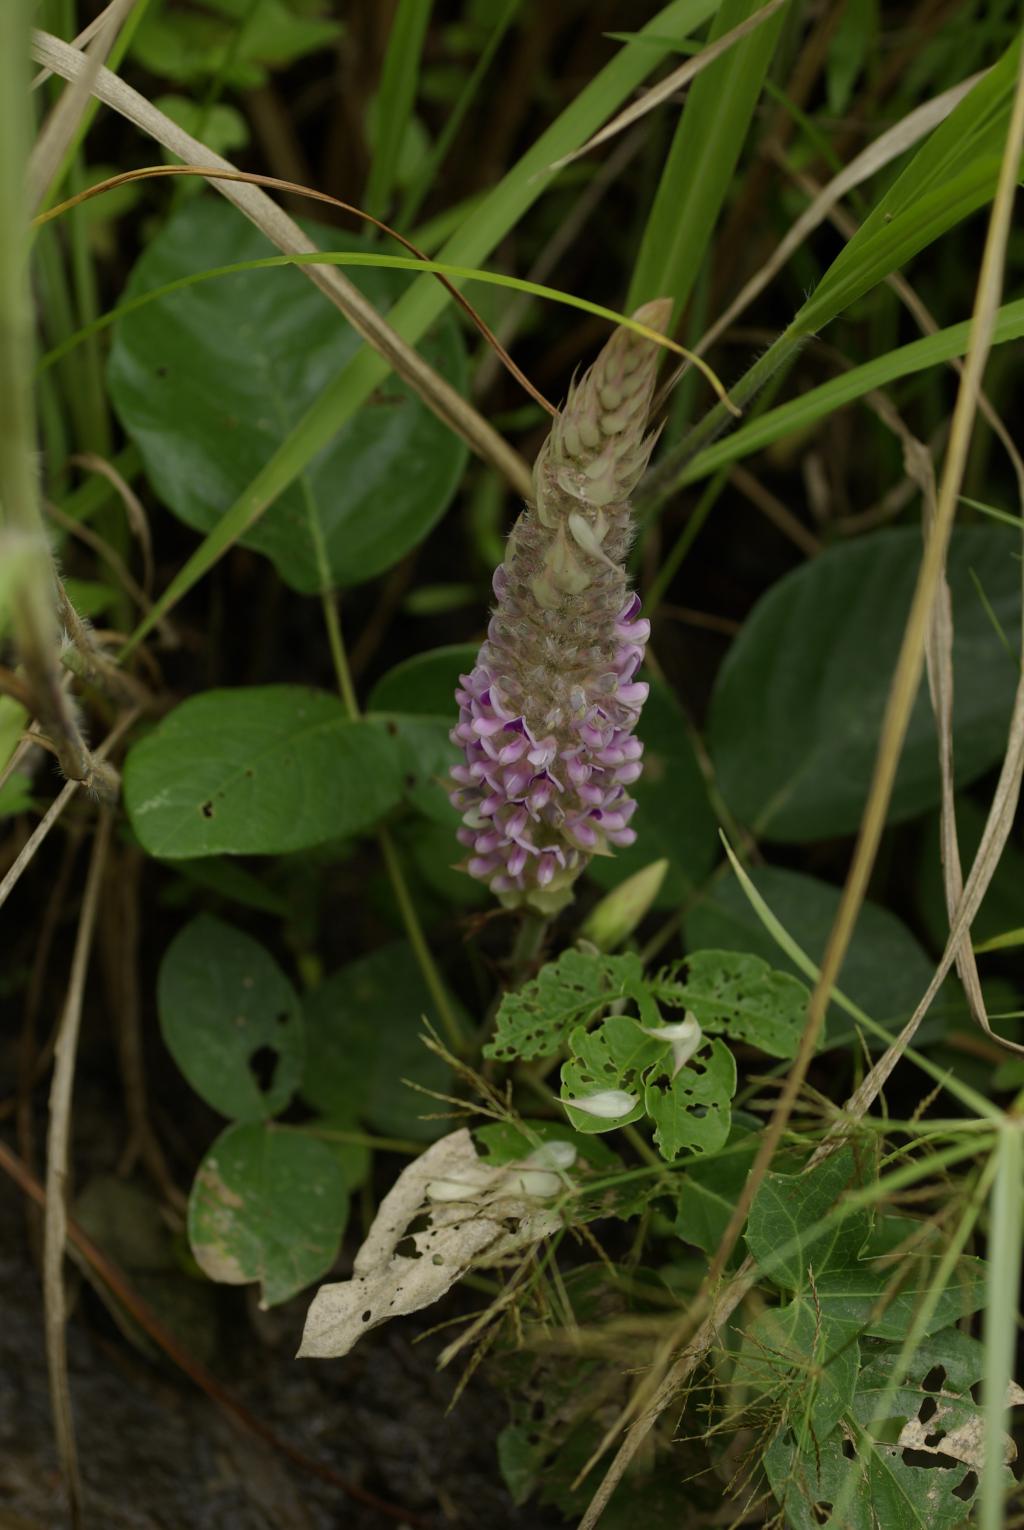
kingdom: Plantae
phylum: Tracheophyta
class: Magnoliopsida
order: Fabales
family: Fabaceae
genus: Uraria
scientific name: Uraria crinita
